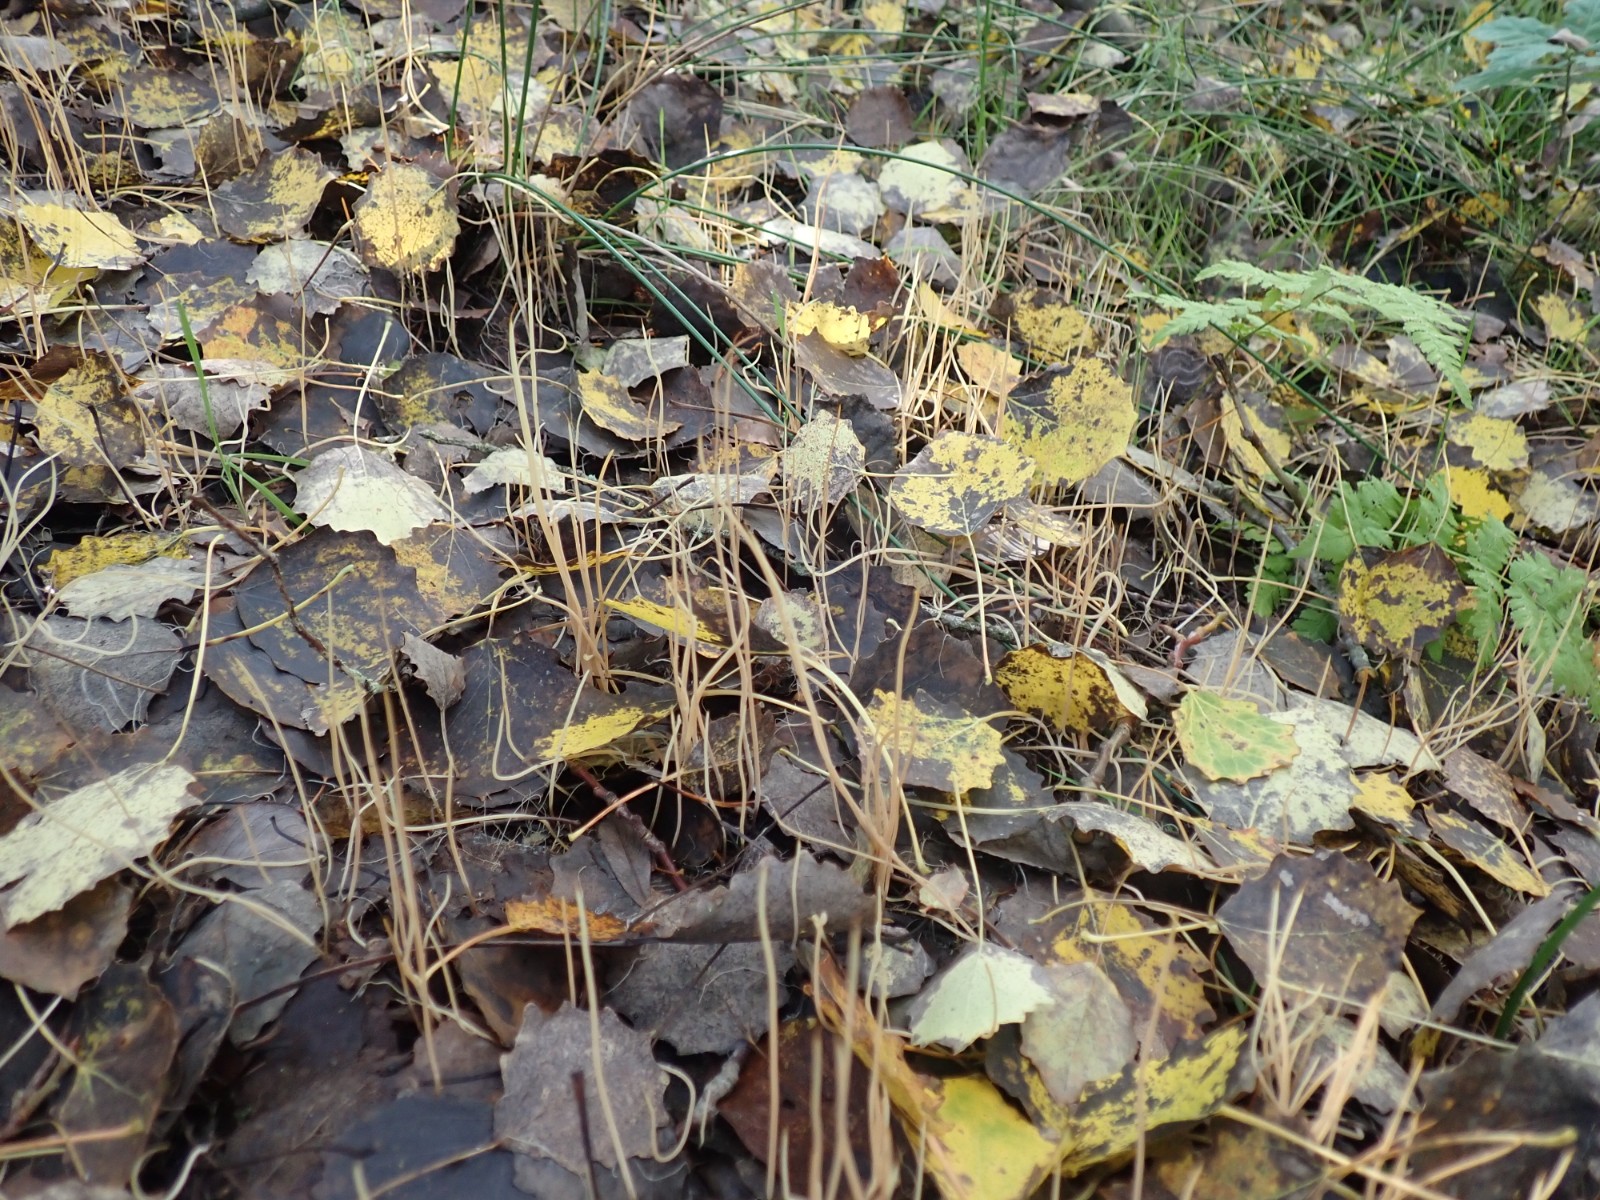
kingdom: Fungi
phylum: Basidiomycota
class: Agaricomycetes
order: Agaricales
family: Typhulaceae
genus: Typhula
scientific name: Typhula juncea
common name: trådagtig rørkølle
